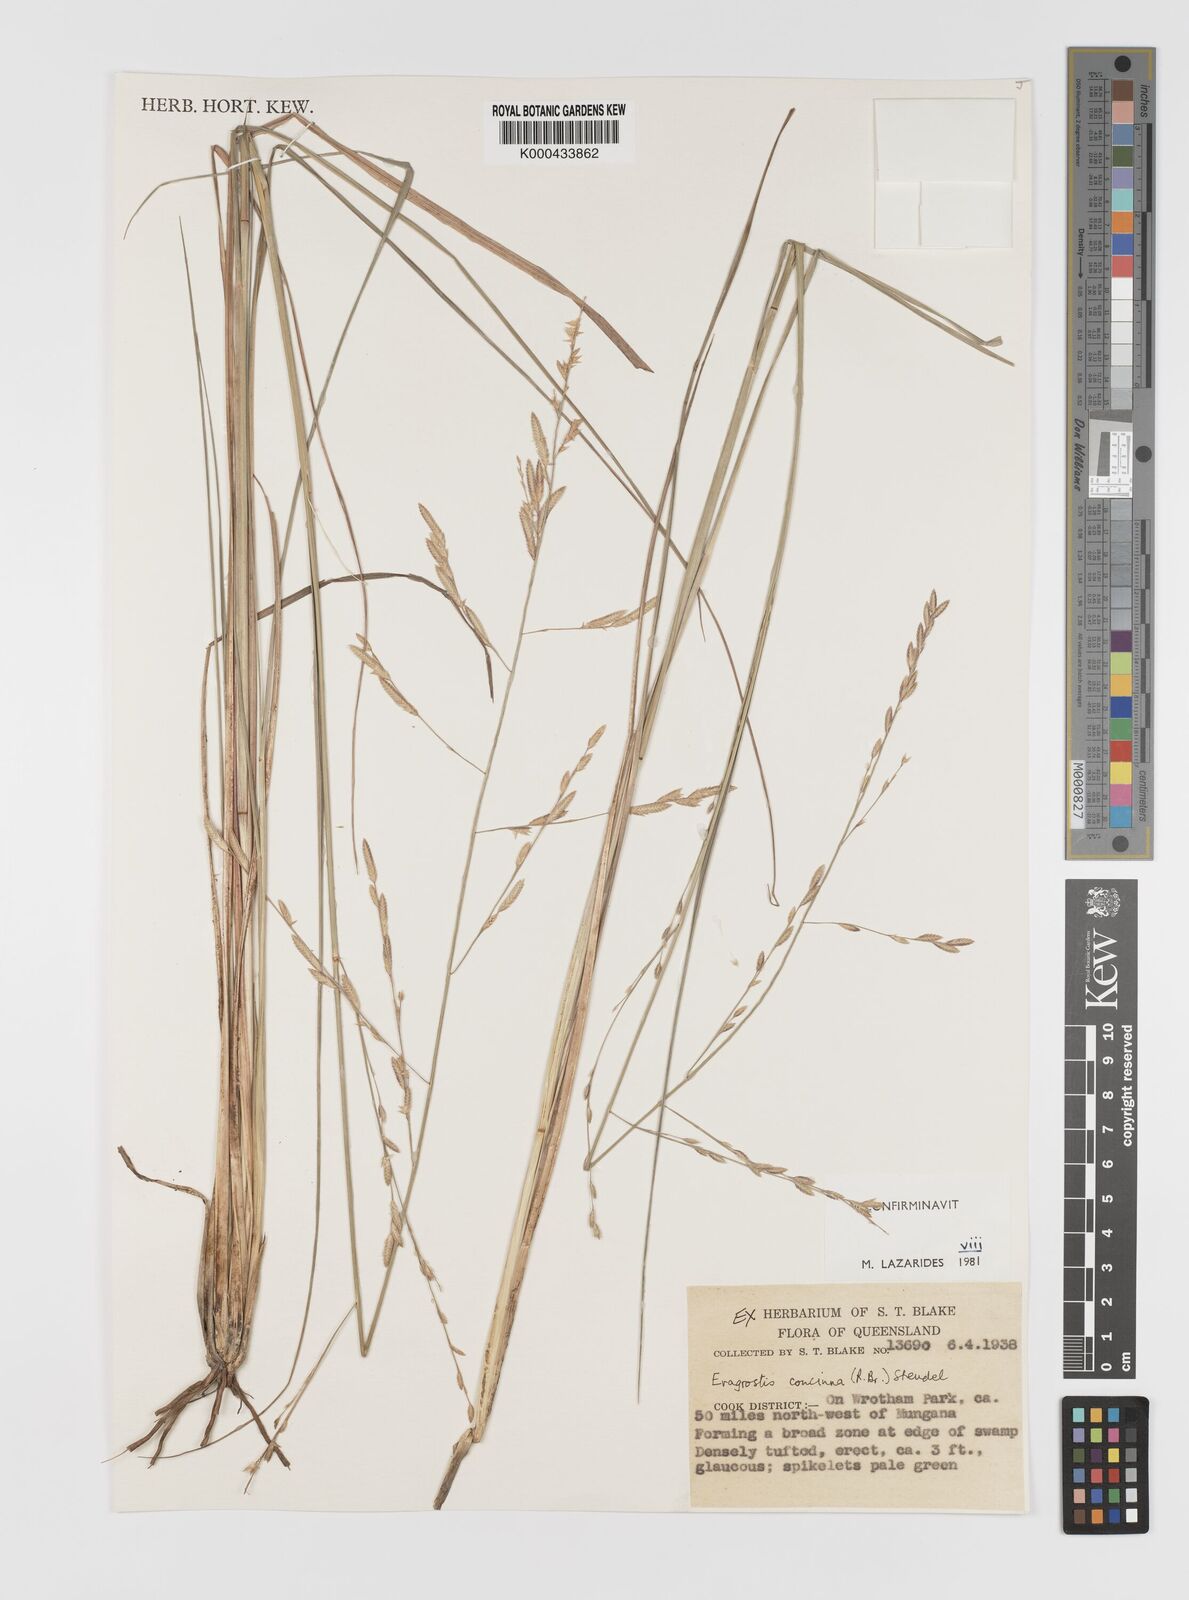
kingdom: Plantae
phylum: Tracheophyta
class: Liliopsida
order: Poales
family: Poaceae
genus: Eragrostis
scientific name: Eragrostis concinna
